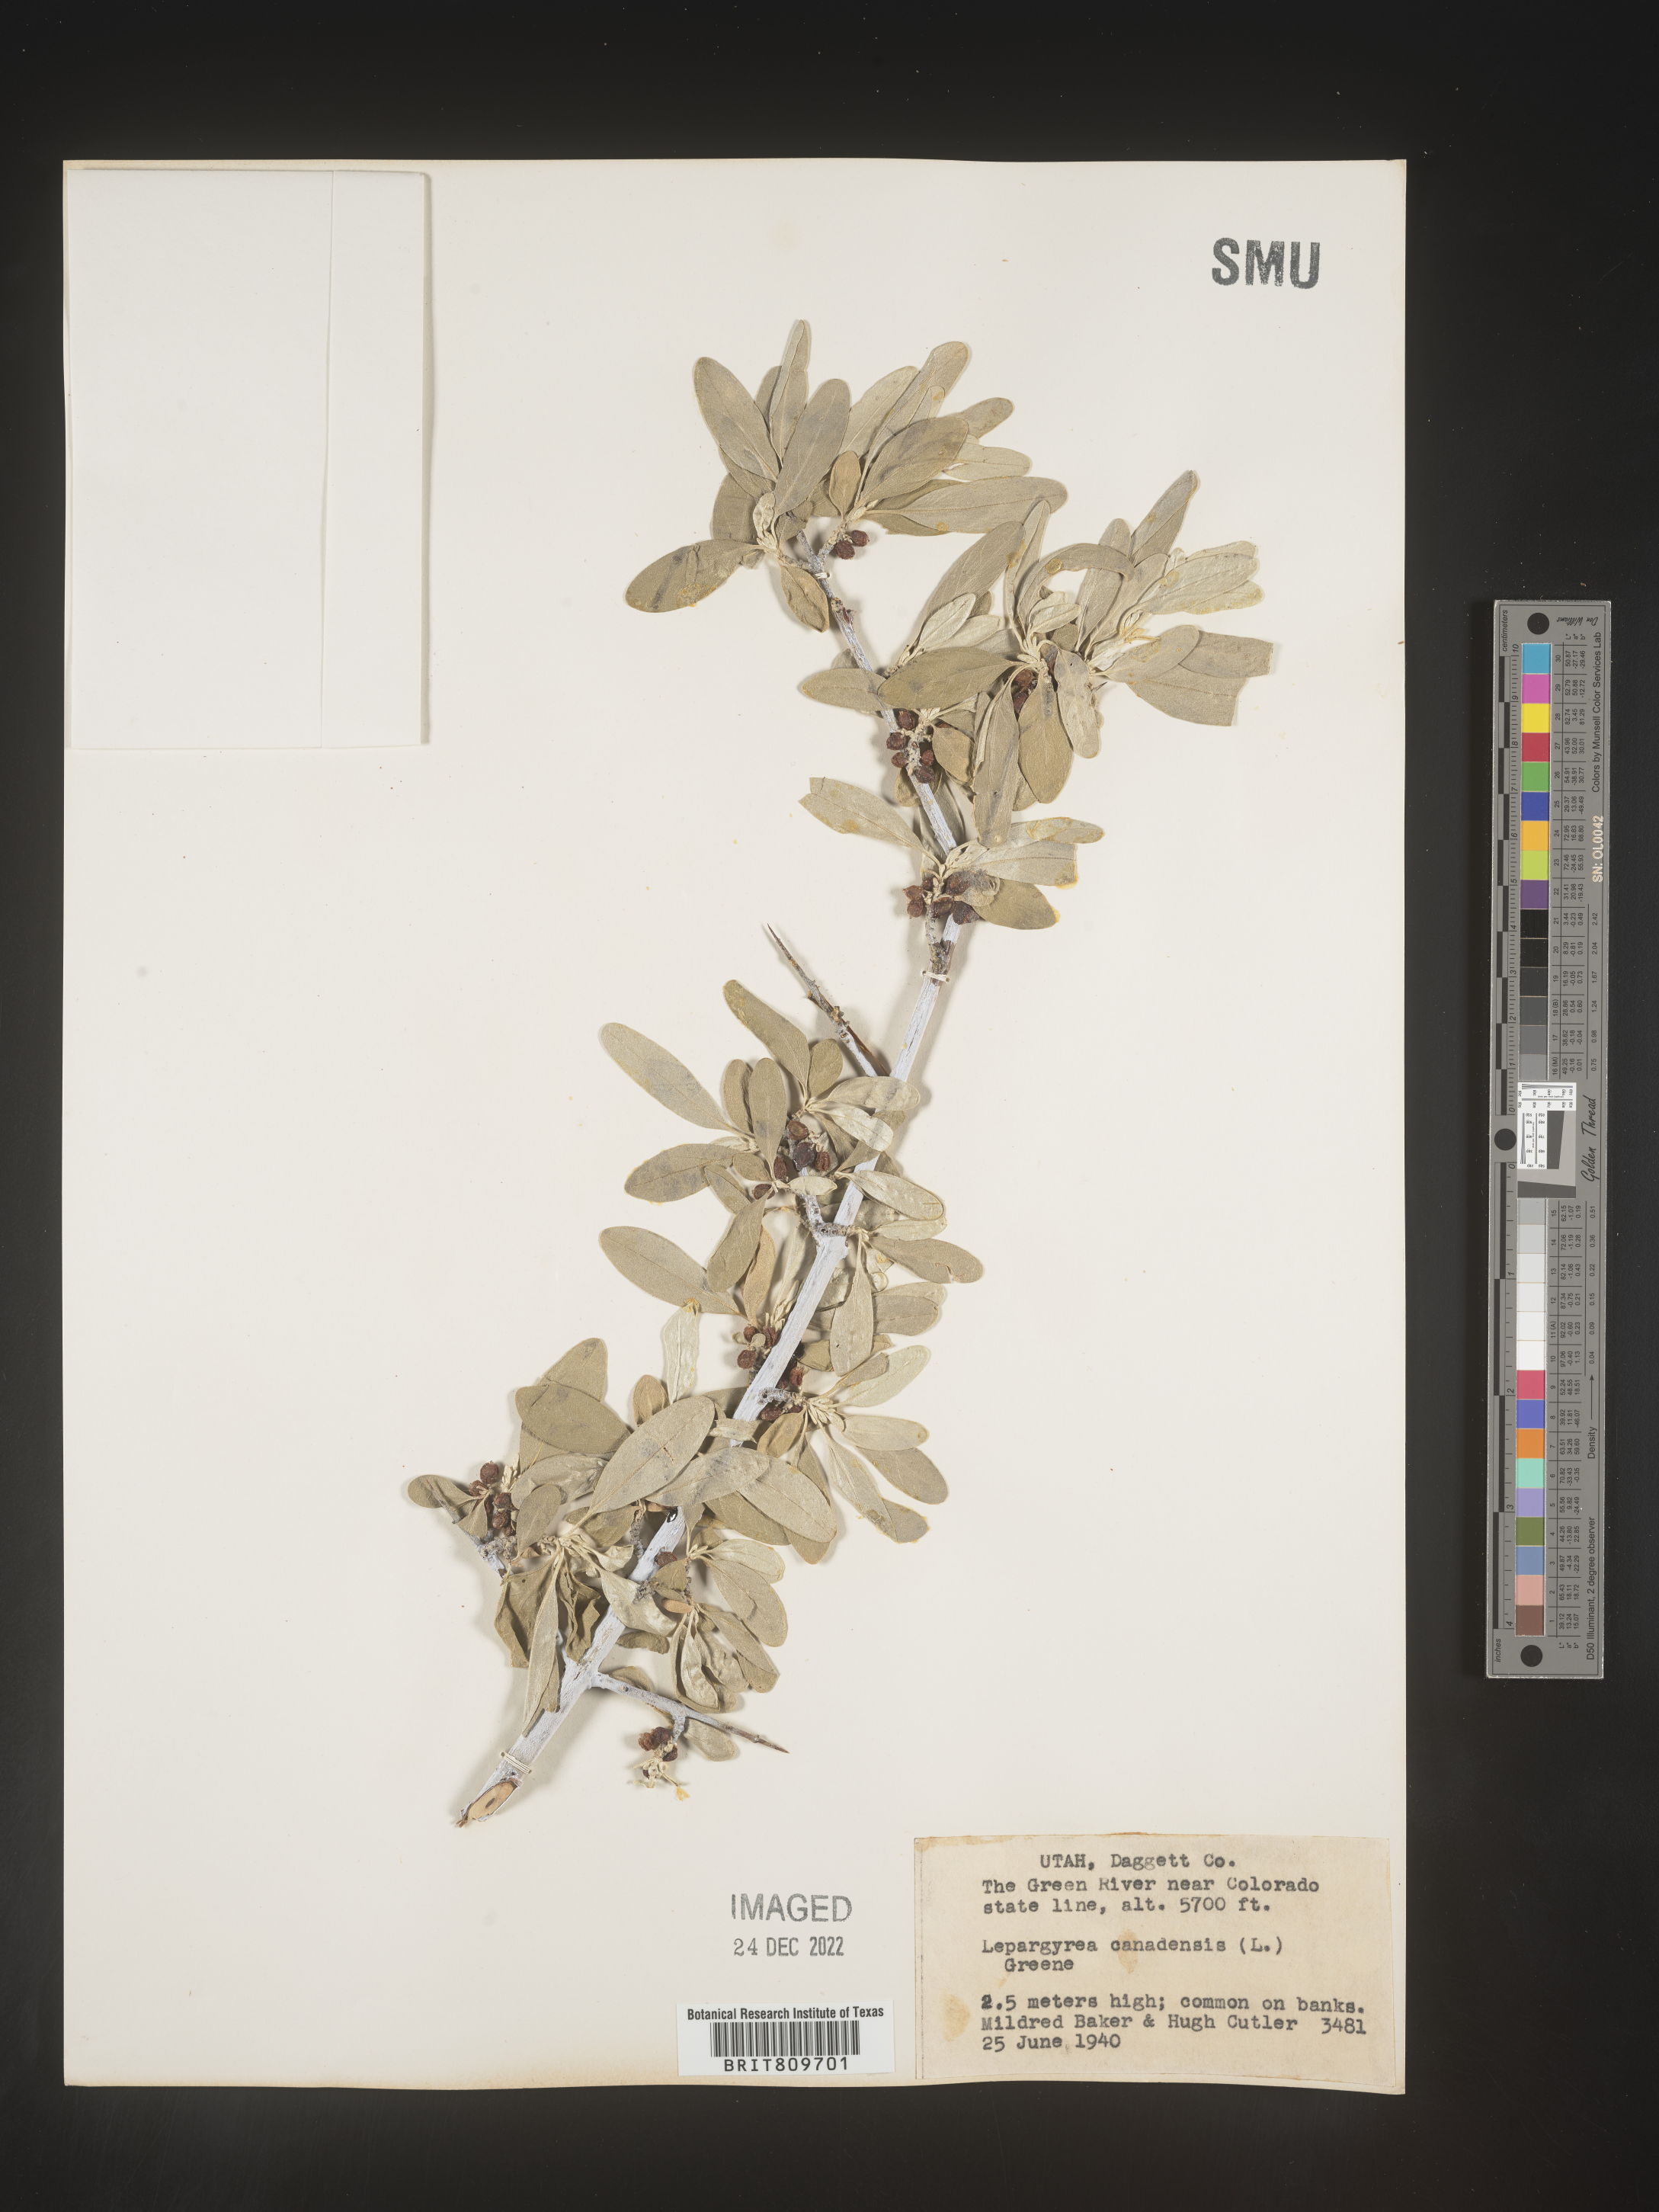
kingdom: Plantae
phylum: Tracheophyta
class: Magnoliopsida
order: Rosales
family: Elaeagnaceae
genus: Shepherdia
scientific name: Shepherdia canadensis
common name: Soapberry
